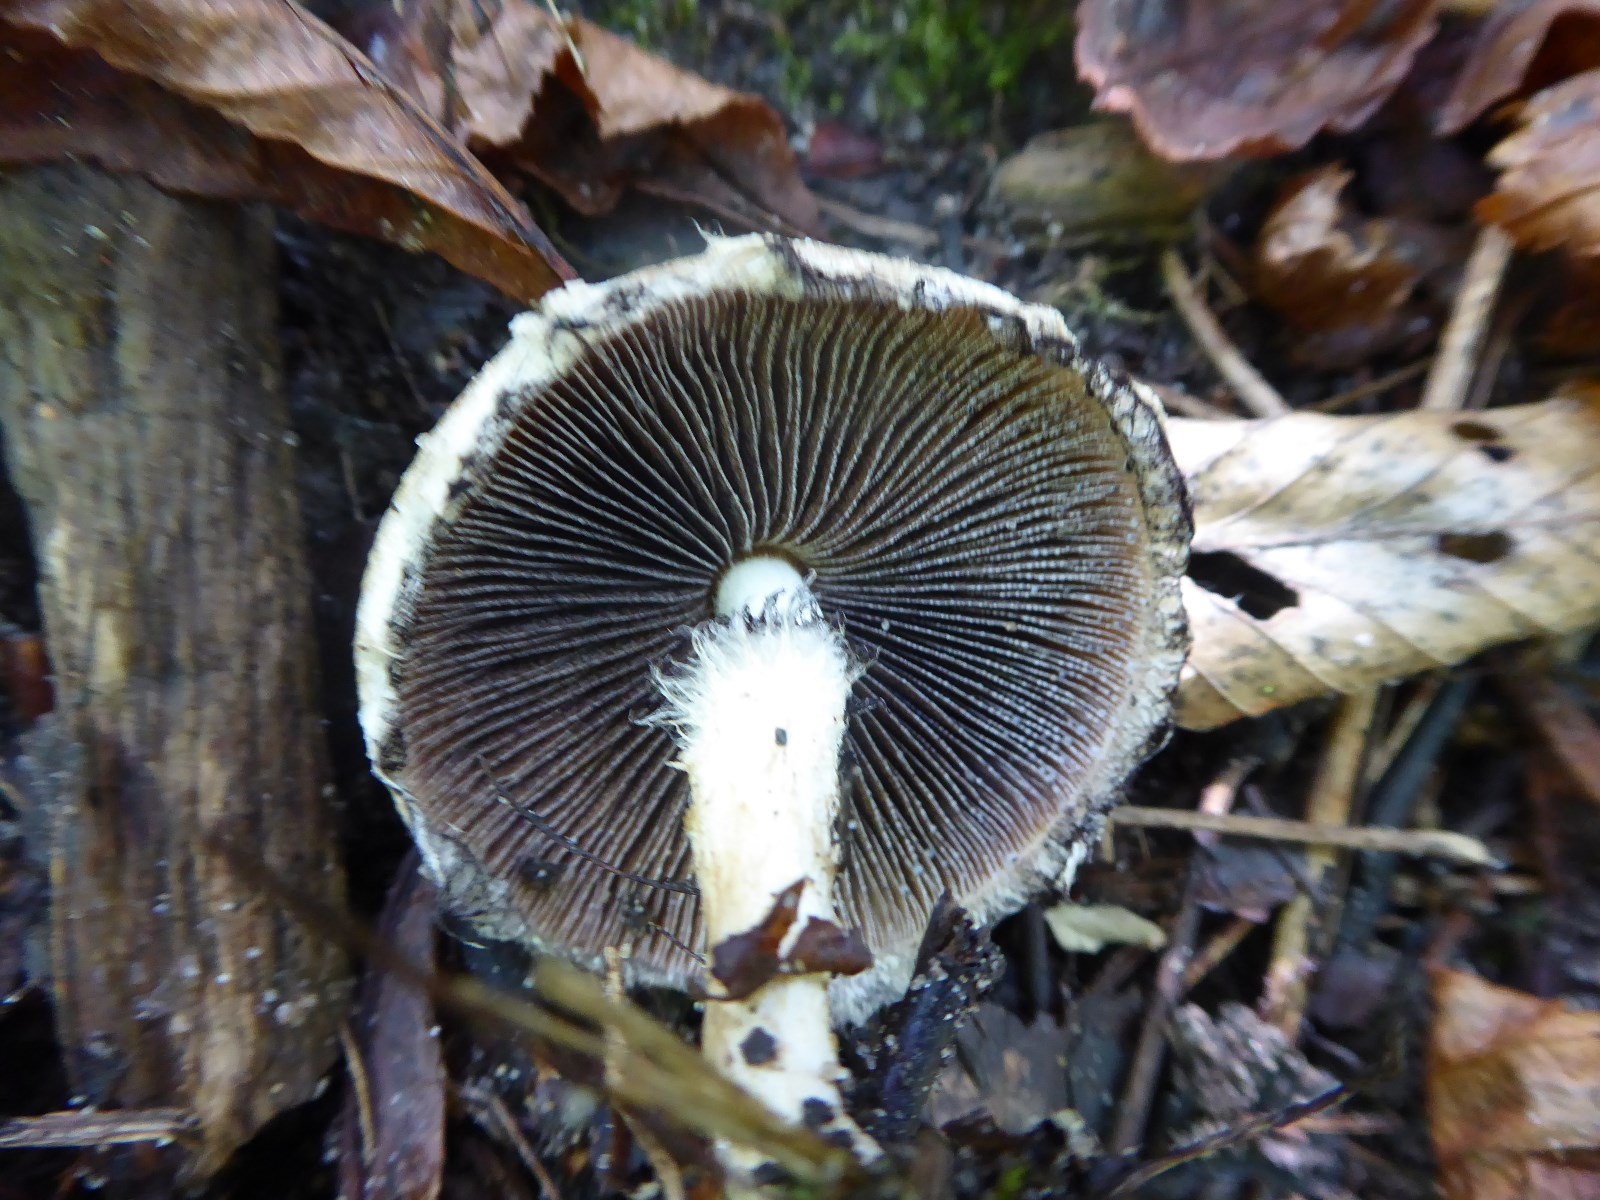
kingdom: Fungi
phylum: Basidiomycota
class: Agaricomycetes
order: Agaricales
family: Psathyrellaceae
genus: Lacrymaria
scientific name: Lacrymaria lacrymabunda
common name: grædende mørkhat
